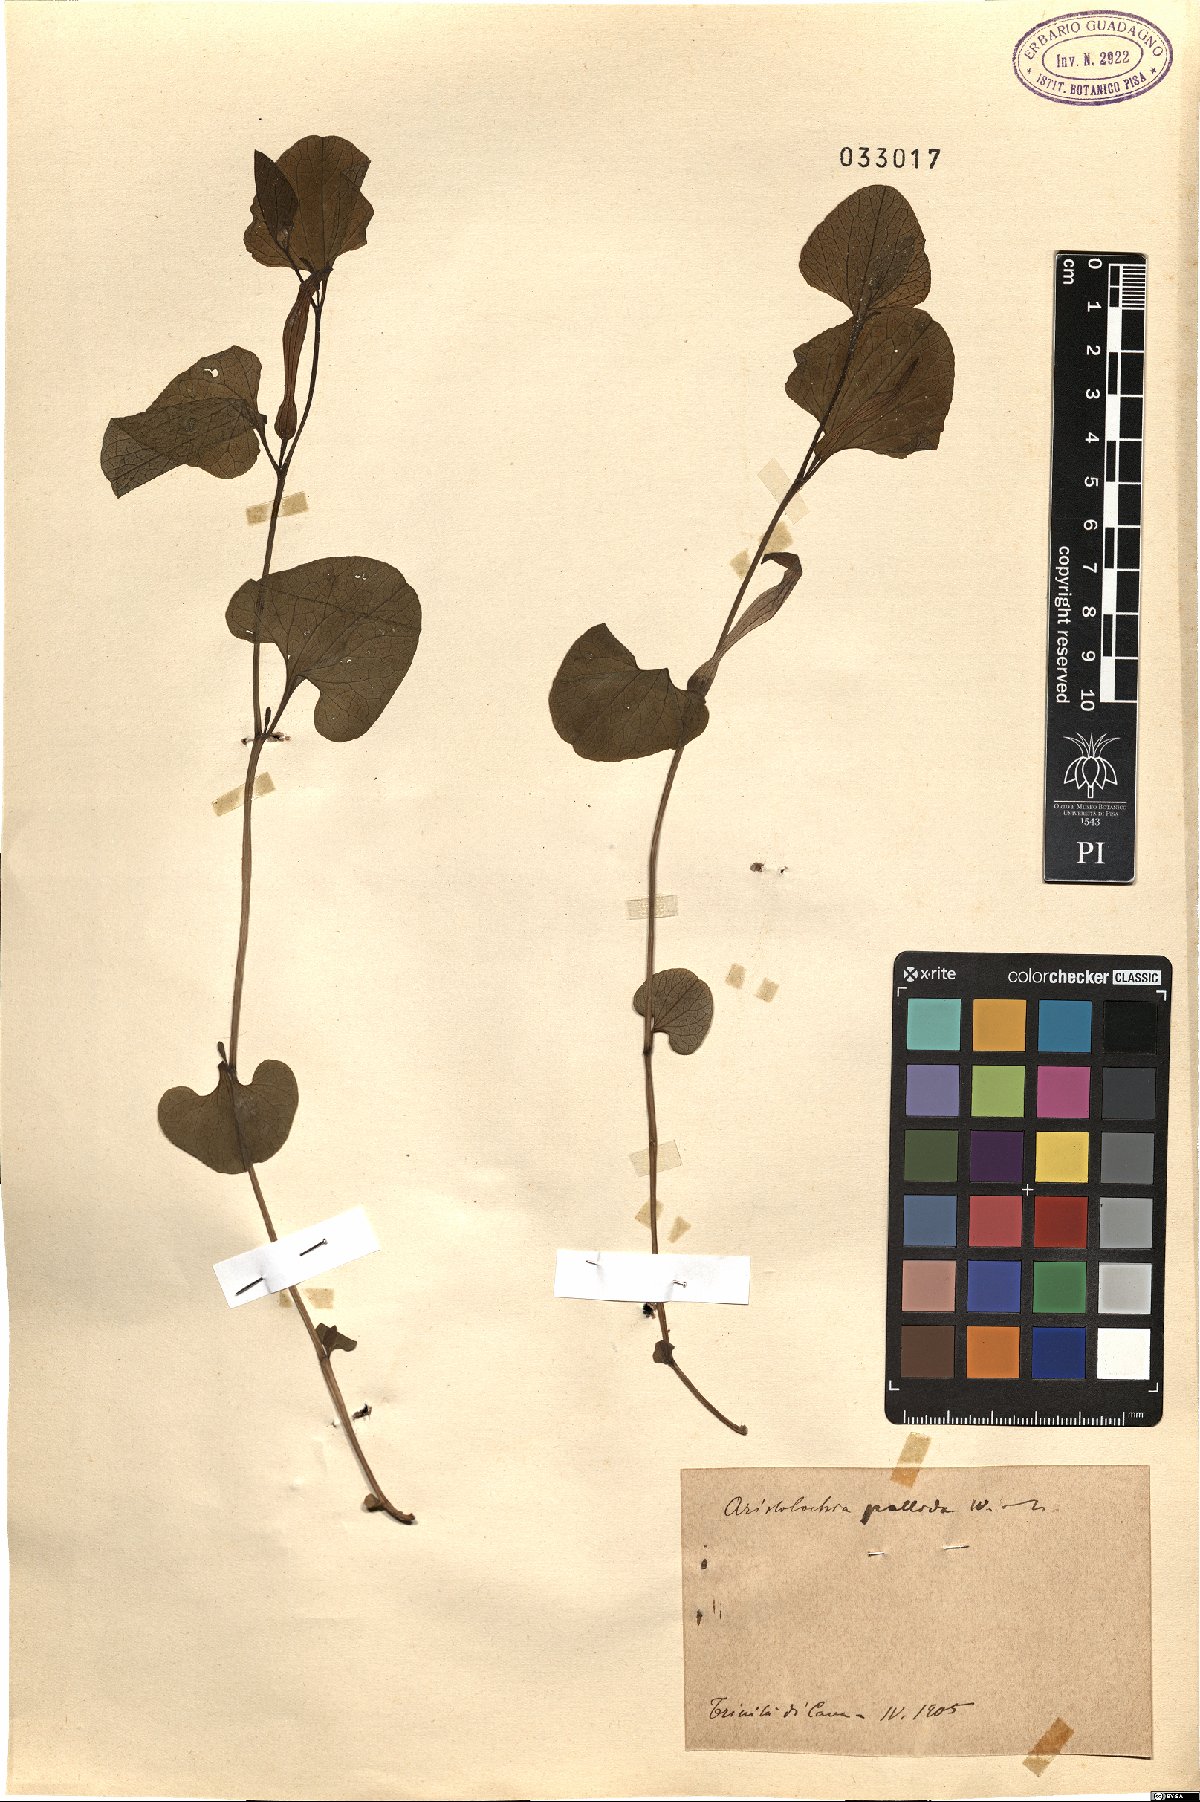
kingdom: Plantae
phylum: Tracheophyta
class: Magnoliopsida
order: Piperales
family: Aristolochiaceae
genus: Aristolochia
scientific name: Aristolochia pallida
